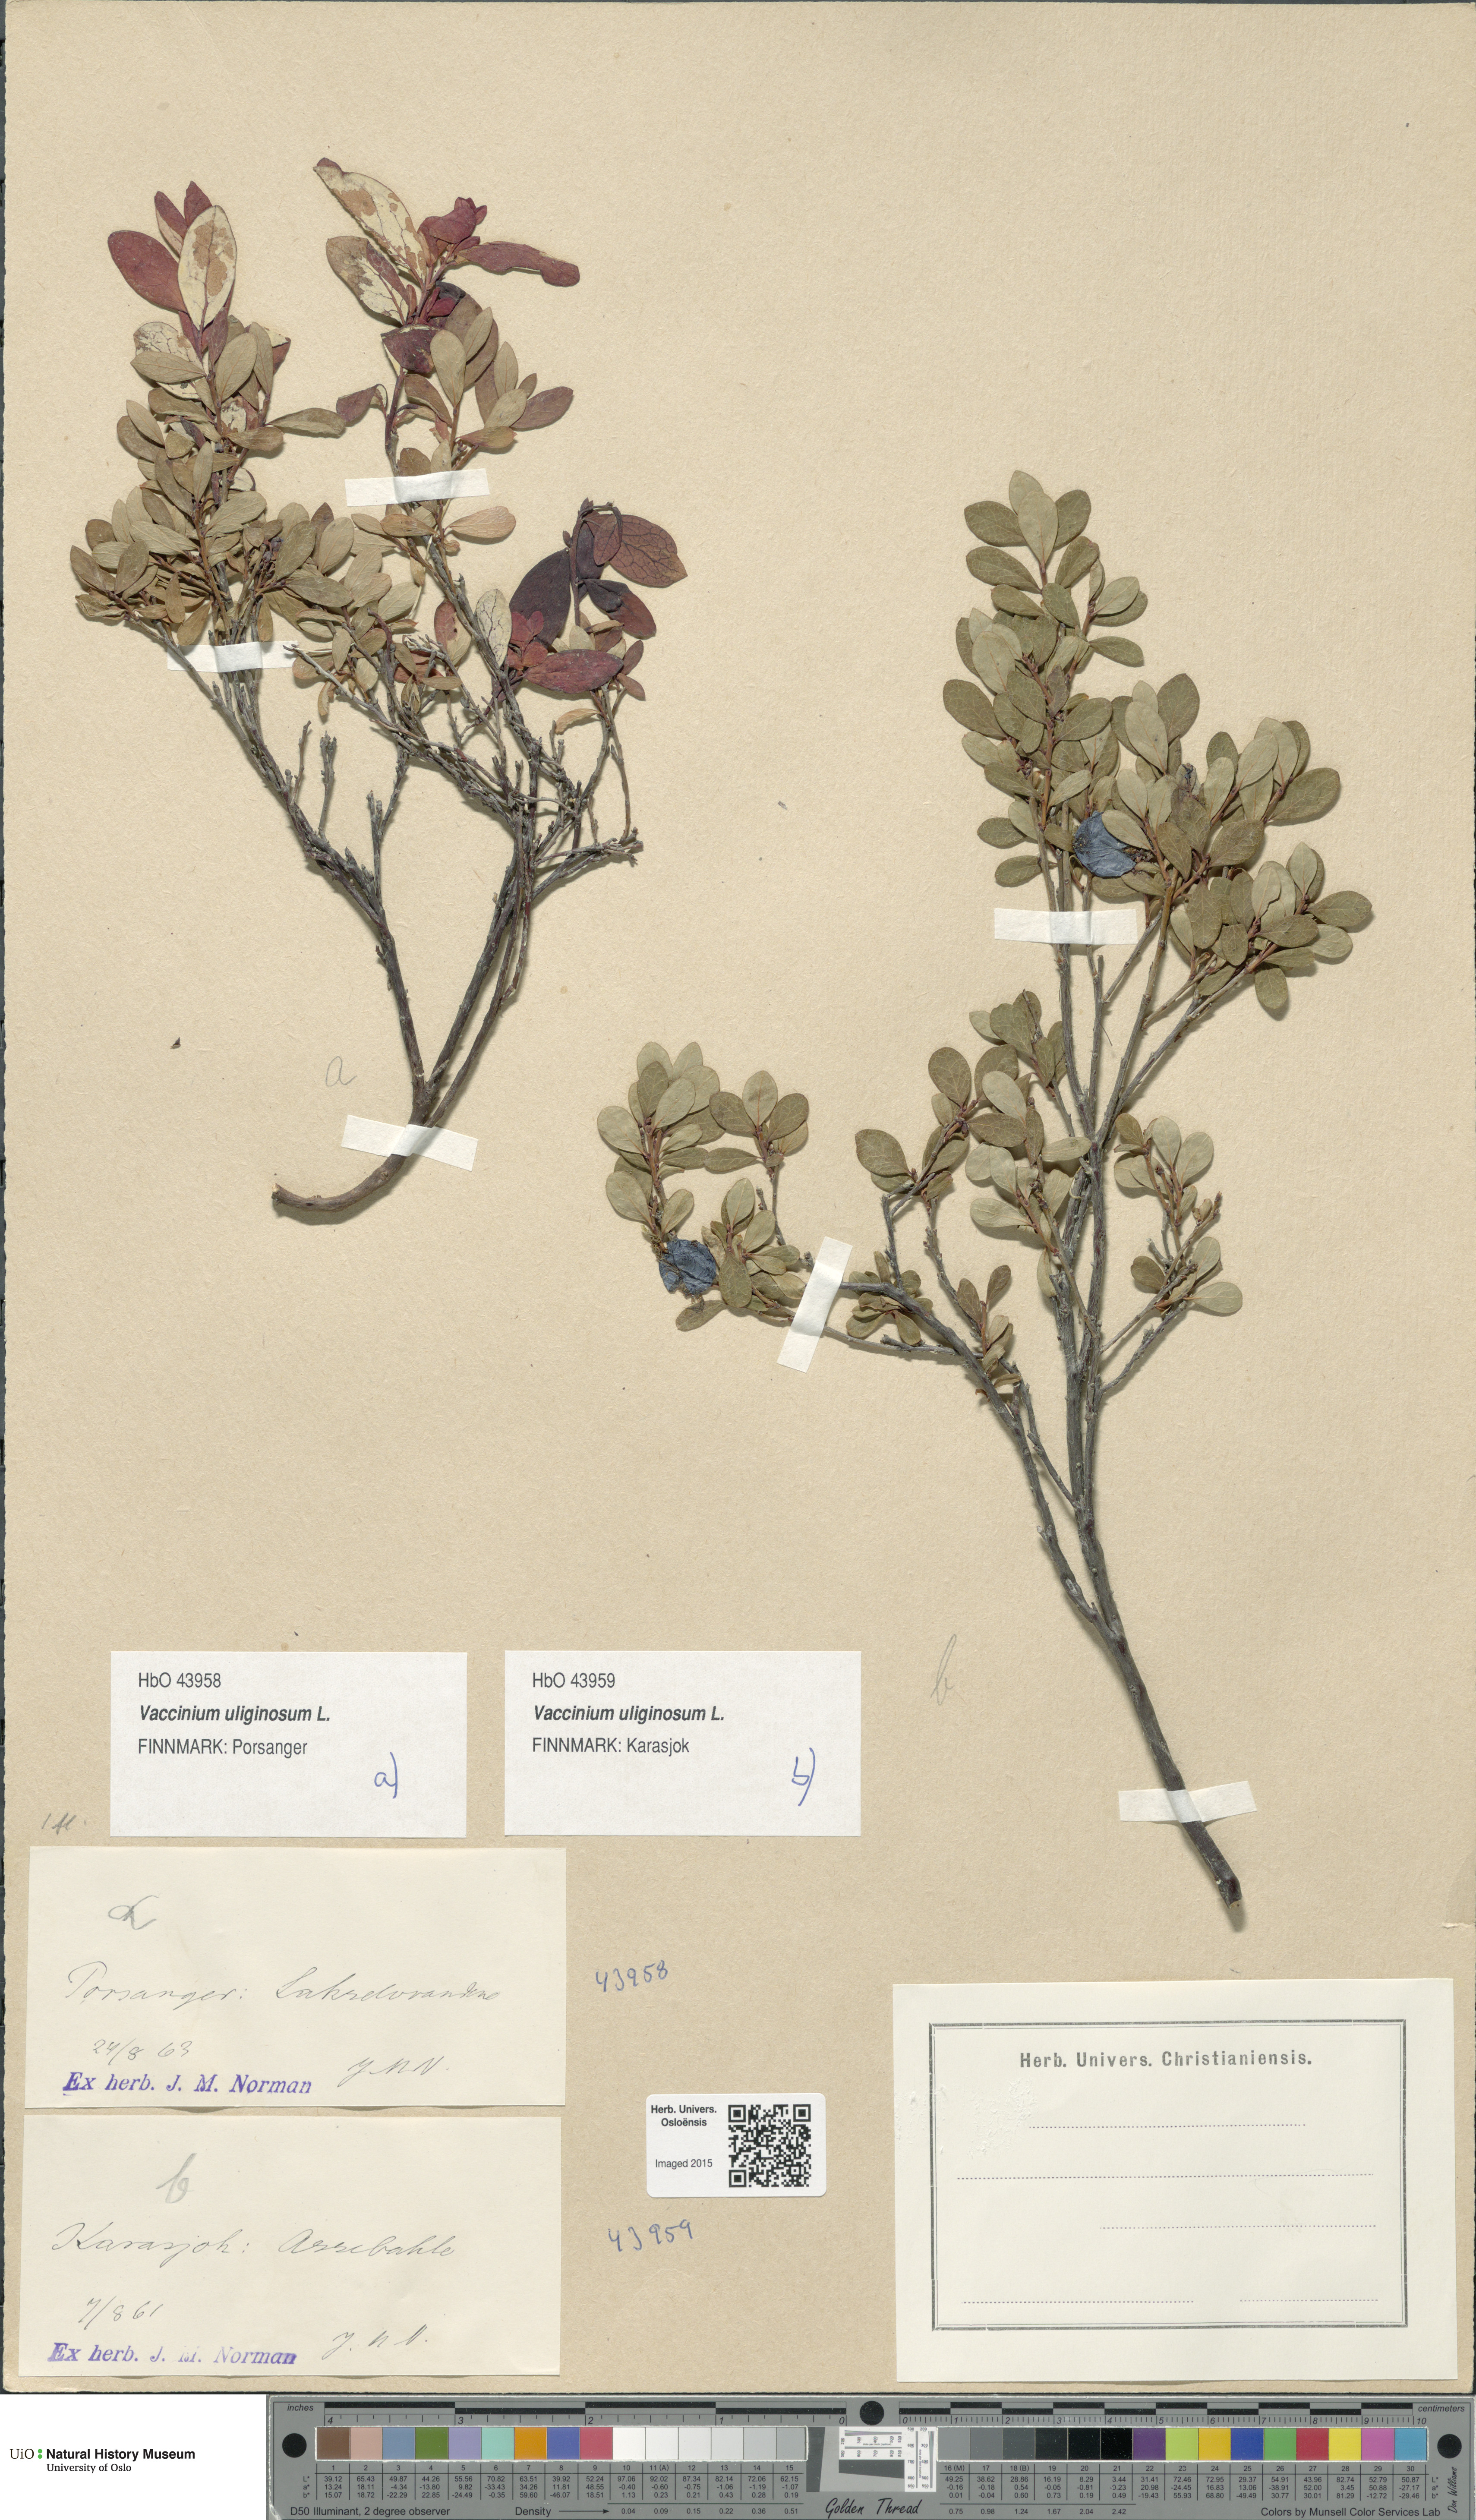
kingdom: Plantae
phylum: Tracheophyta
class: Magnoliopsida
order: Ericales
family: Ericaceae
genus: Vaccinium
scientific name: Vaccinium uliginosum
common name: Bog bilberry
